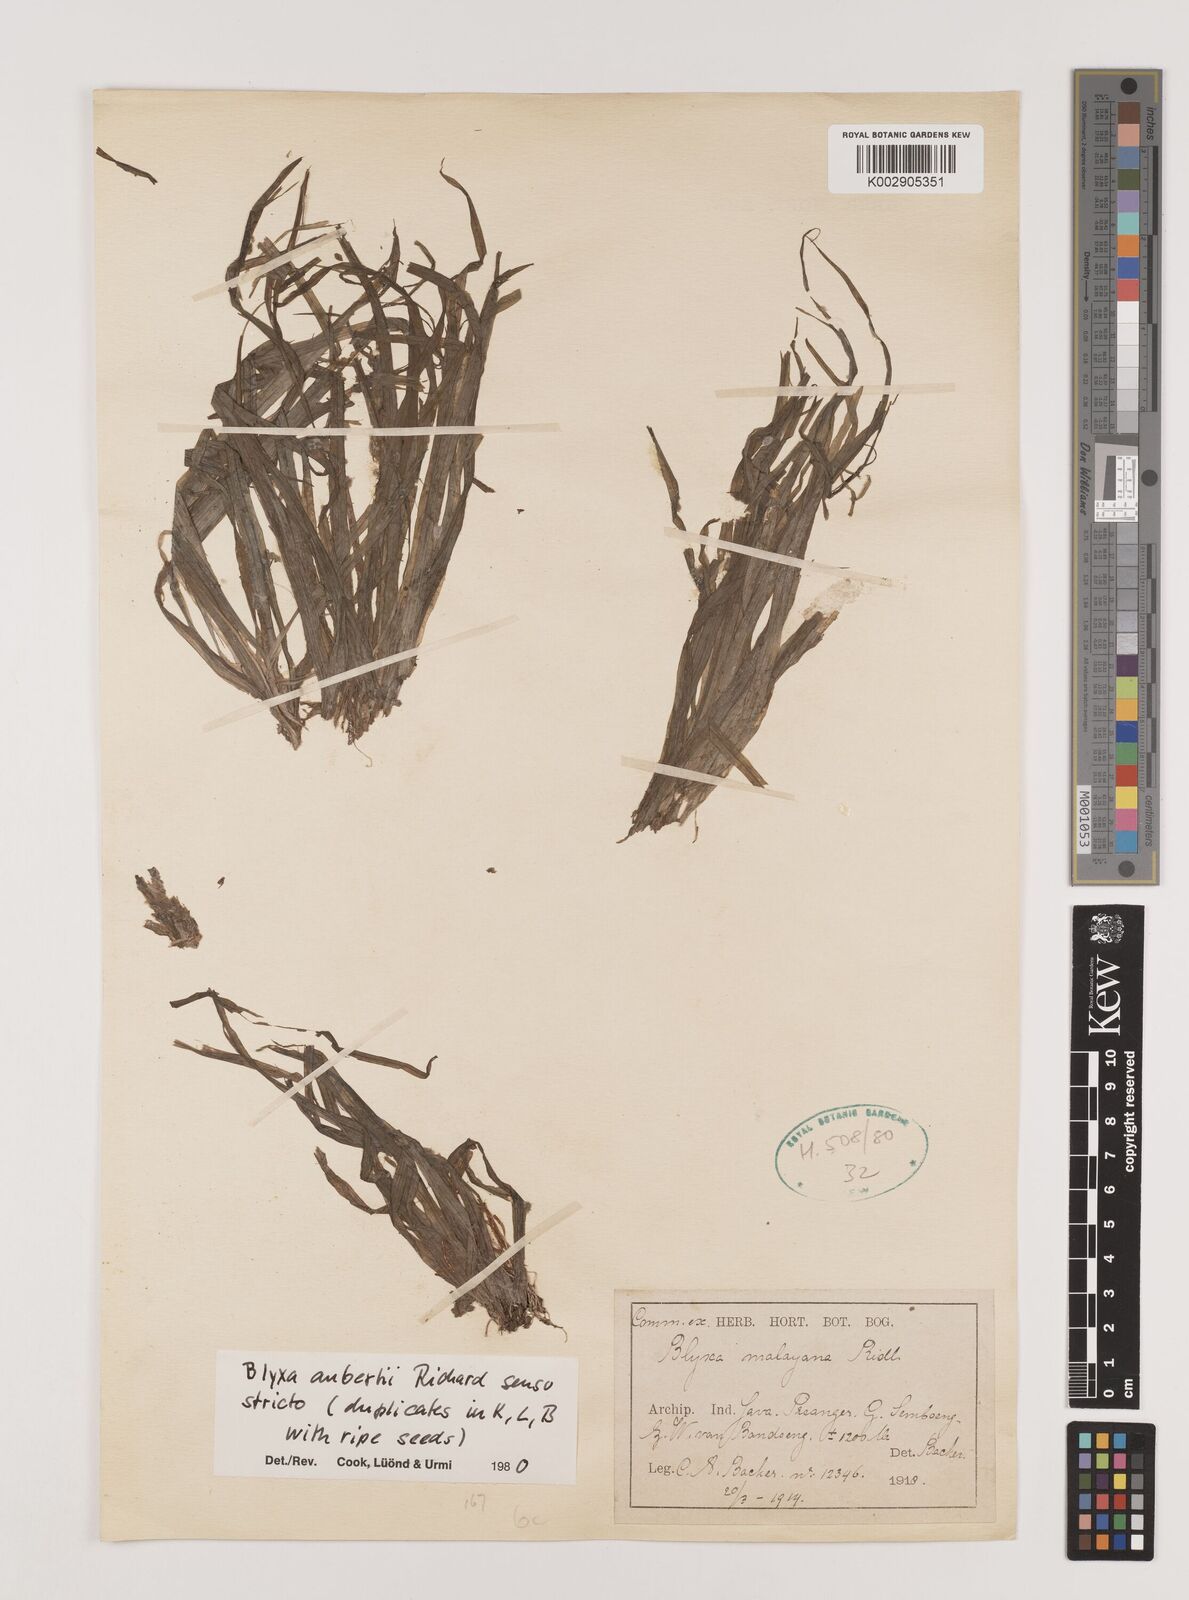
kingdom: Plantae
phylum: Tracheophyta
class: Liliopsida
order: Alismatales
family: Hydrocharitaceae
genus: Blyxa
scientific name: Blyxa aubertii
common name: Roundfruit blyxa
